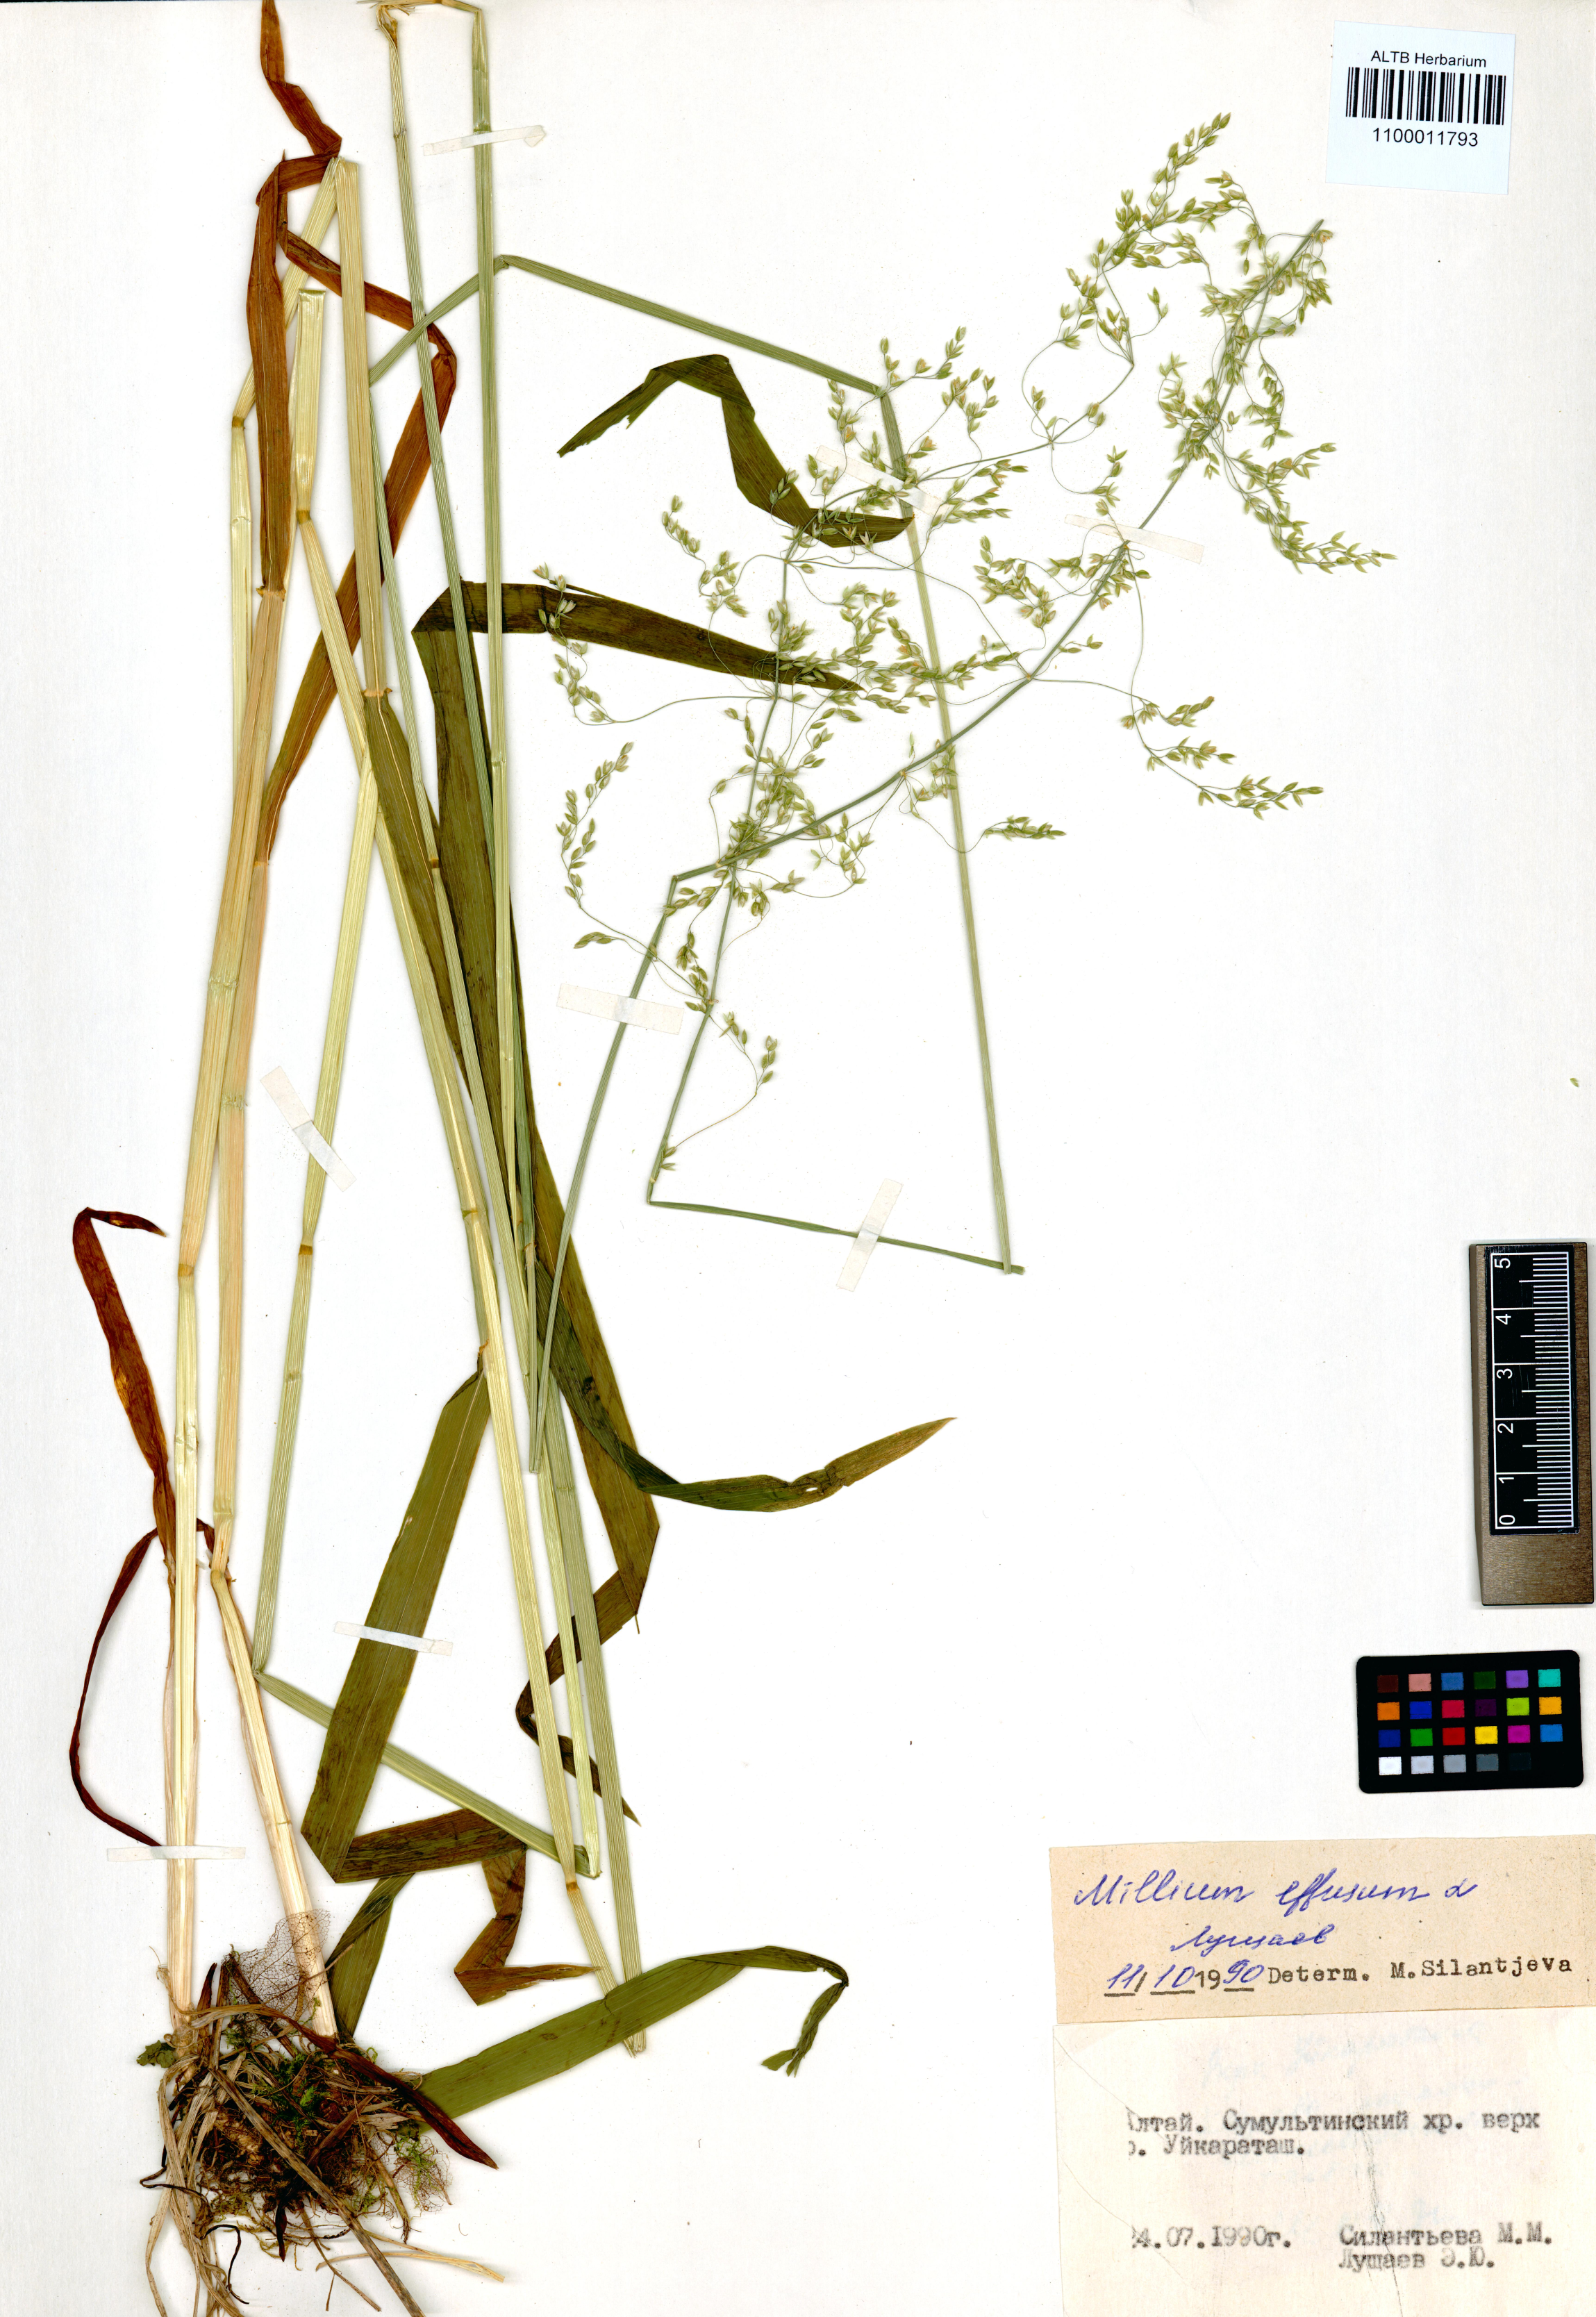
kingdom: Plantae
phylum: Tracheophyta
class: Liliopsida
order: Poales
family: Poaceae
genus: Milium
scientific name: Milium effusum
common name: Wood millet
